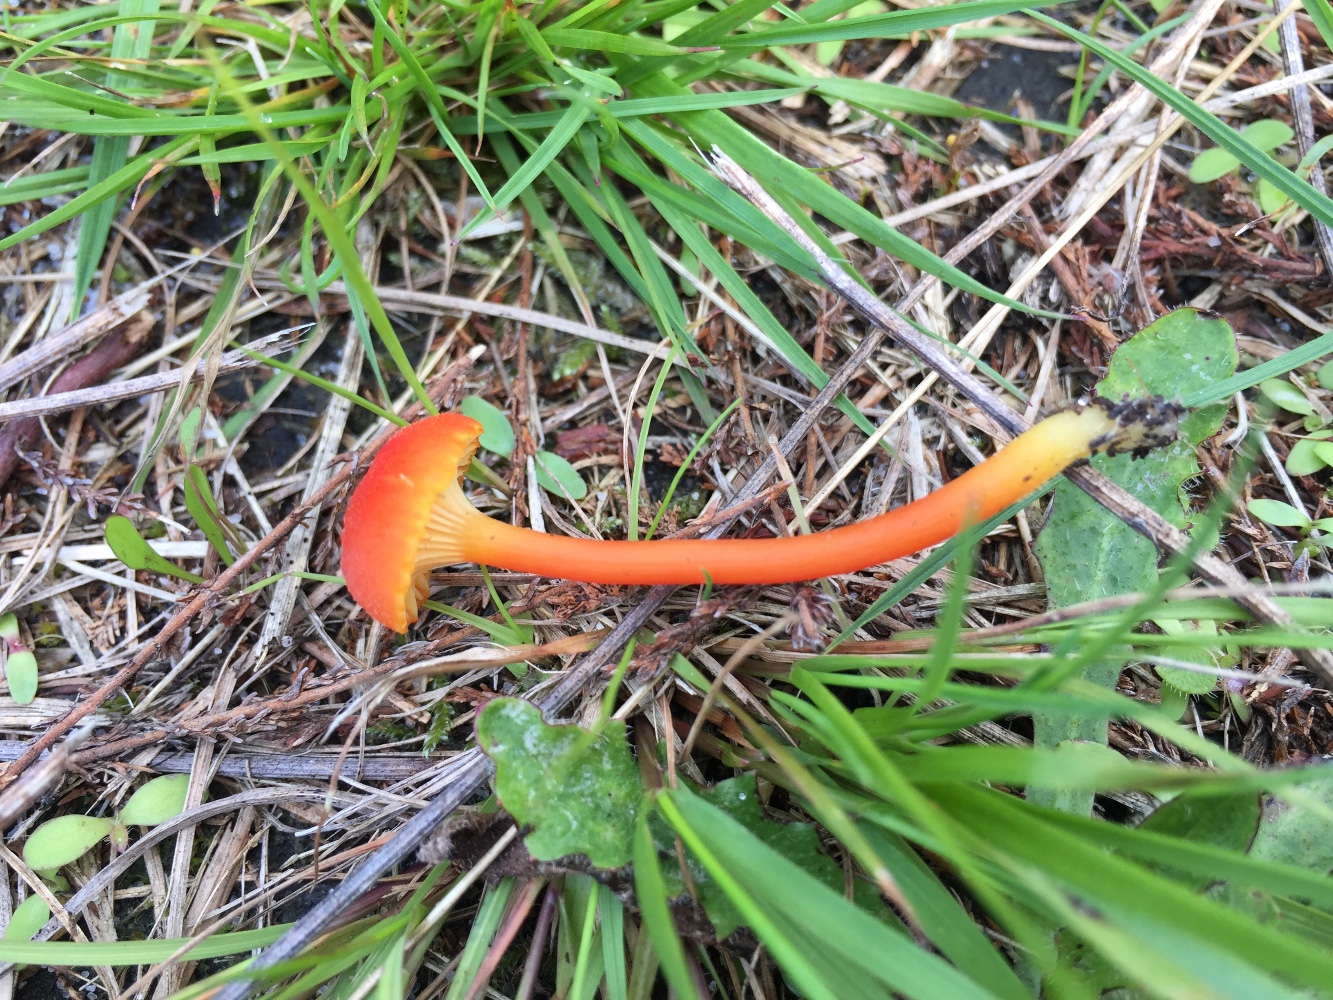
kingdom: Fungi
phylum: Basidiomycota
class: Agaricomycetes
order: Agaricales
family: Hygrophoraceae
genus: Hygrocybe
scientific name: Hygrocybe cantharellus
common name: kantarel-vokshat
